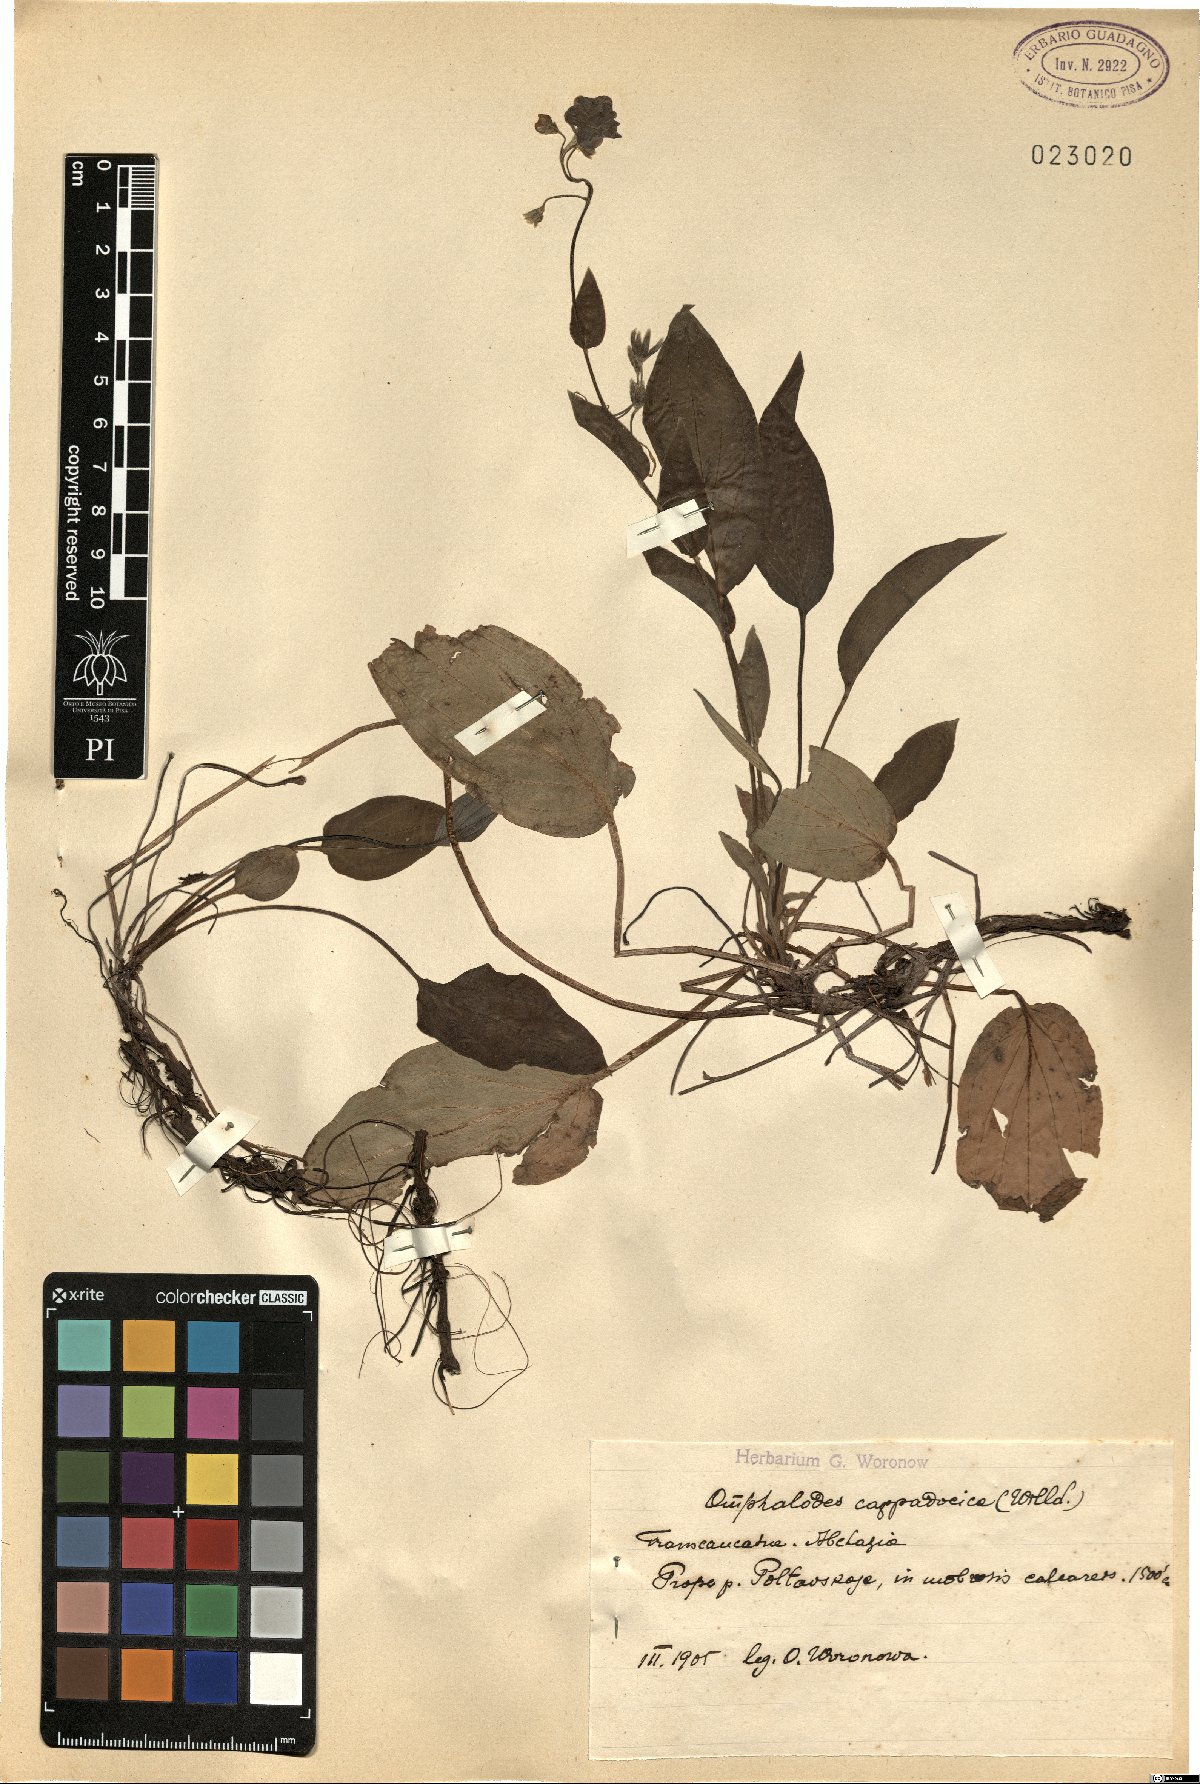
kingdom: Plantae
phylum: Tracheophyta
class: Magnoliopsida
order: Boraginales
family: Boraginaceae
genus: Omphalodes
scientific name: Omphalodes cappadocica
